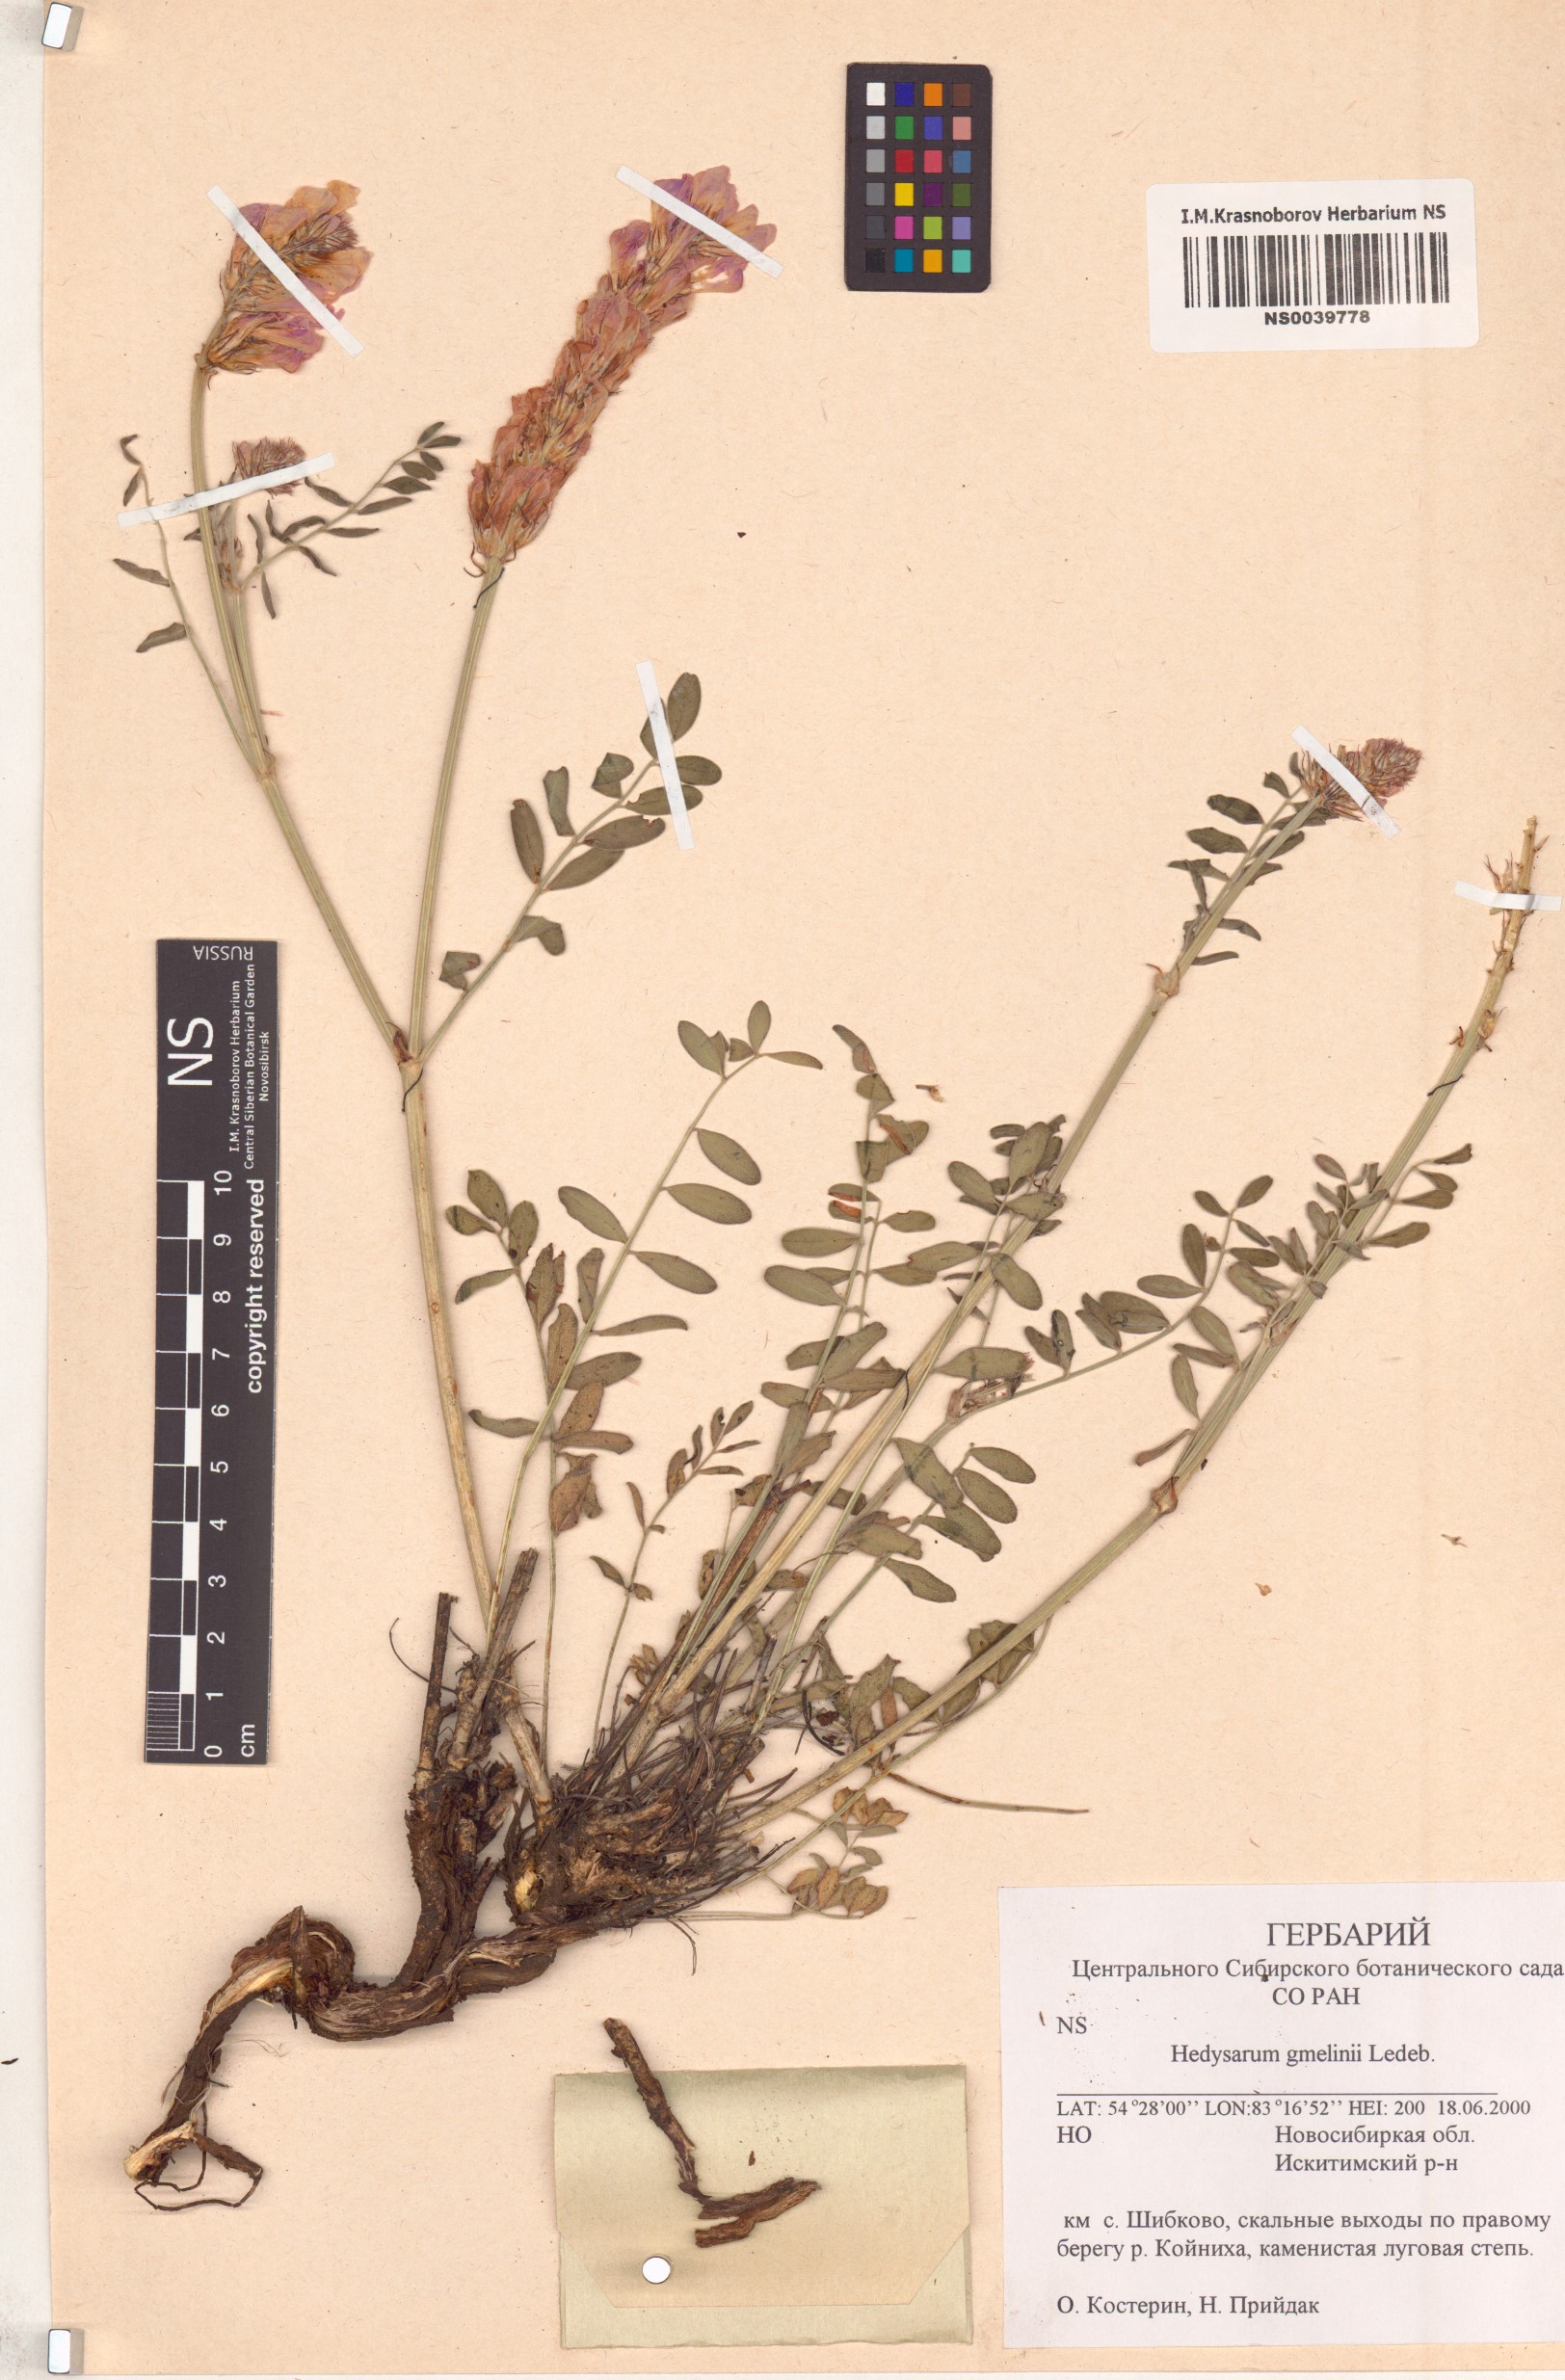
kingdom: Plantae
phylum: Tracheophyta
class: Magnoliopsida
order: Fabales
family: Fabaceae
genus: Hedysarum
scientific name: Hedysarum gmelinii
